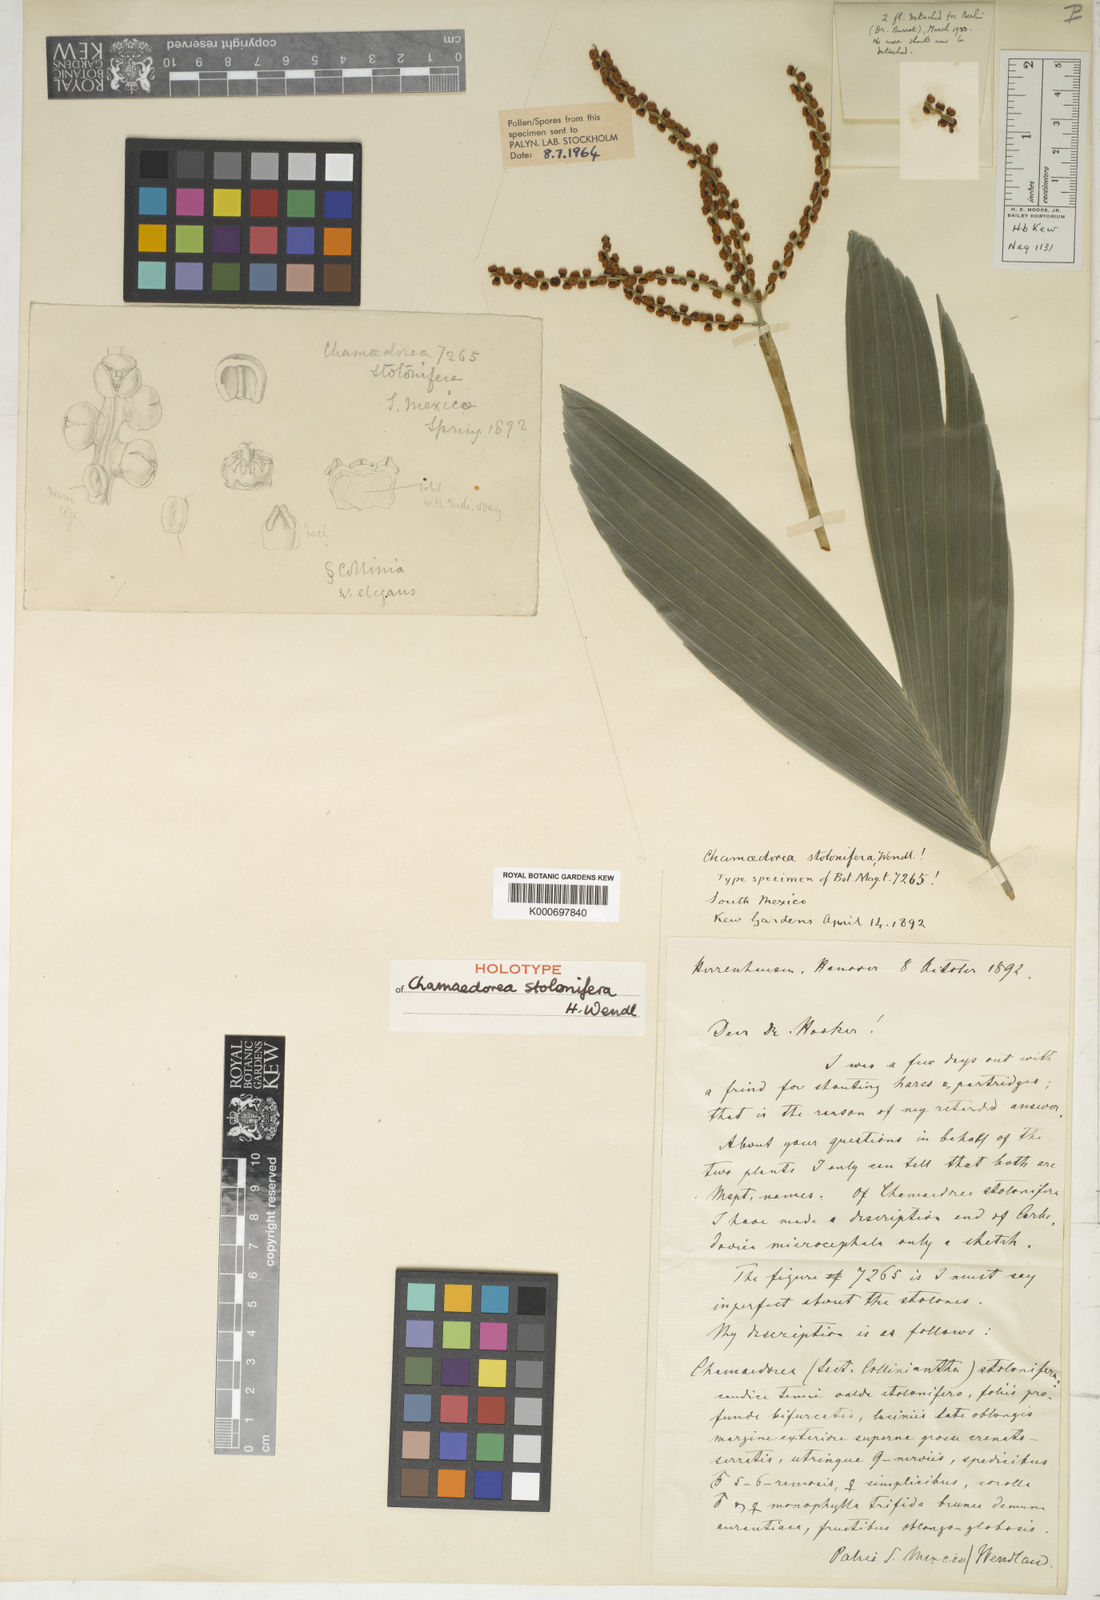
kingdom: Plantae
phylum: Tracheophyta
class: Liliopsida
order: Arecales
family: Arecaceae
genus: Chamaedorea
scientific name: Chamaedorea stolonifera
